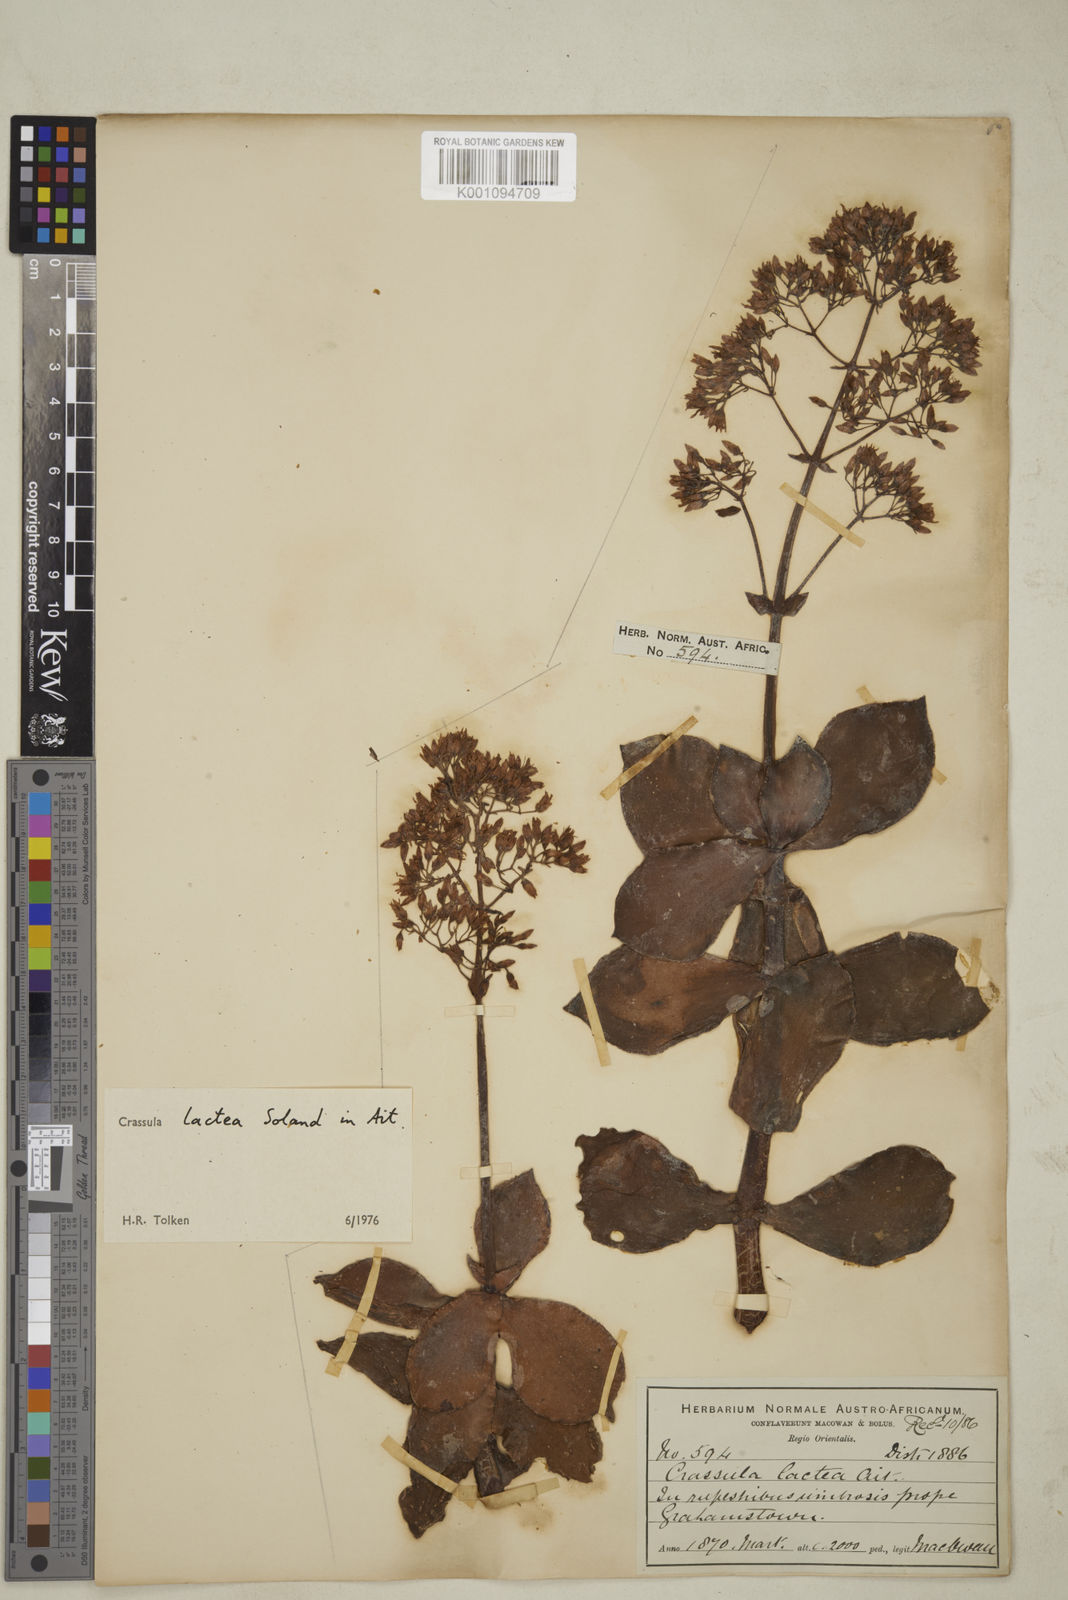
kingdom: Plantae
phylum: Tracheophyta
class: Magnoliopsida
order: Saxifragales
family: Crassulaceae
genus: Crassula
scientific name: Crassula lactea
